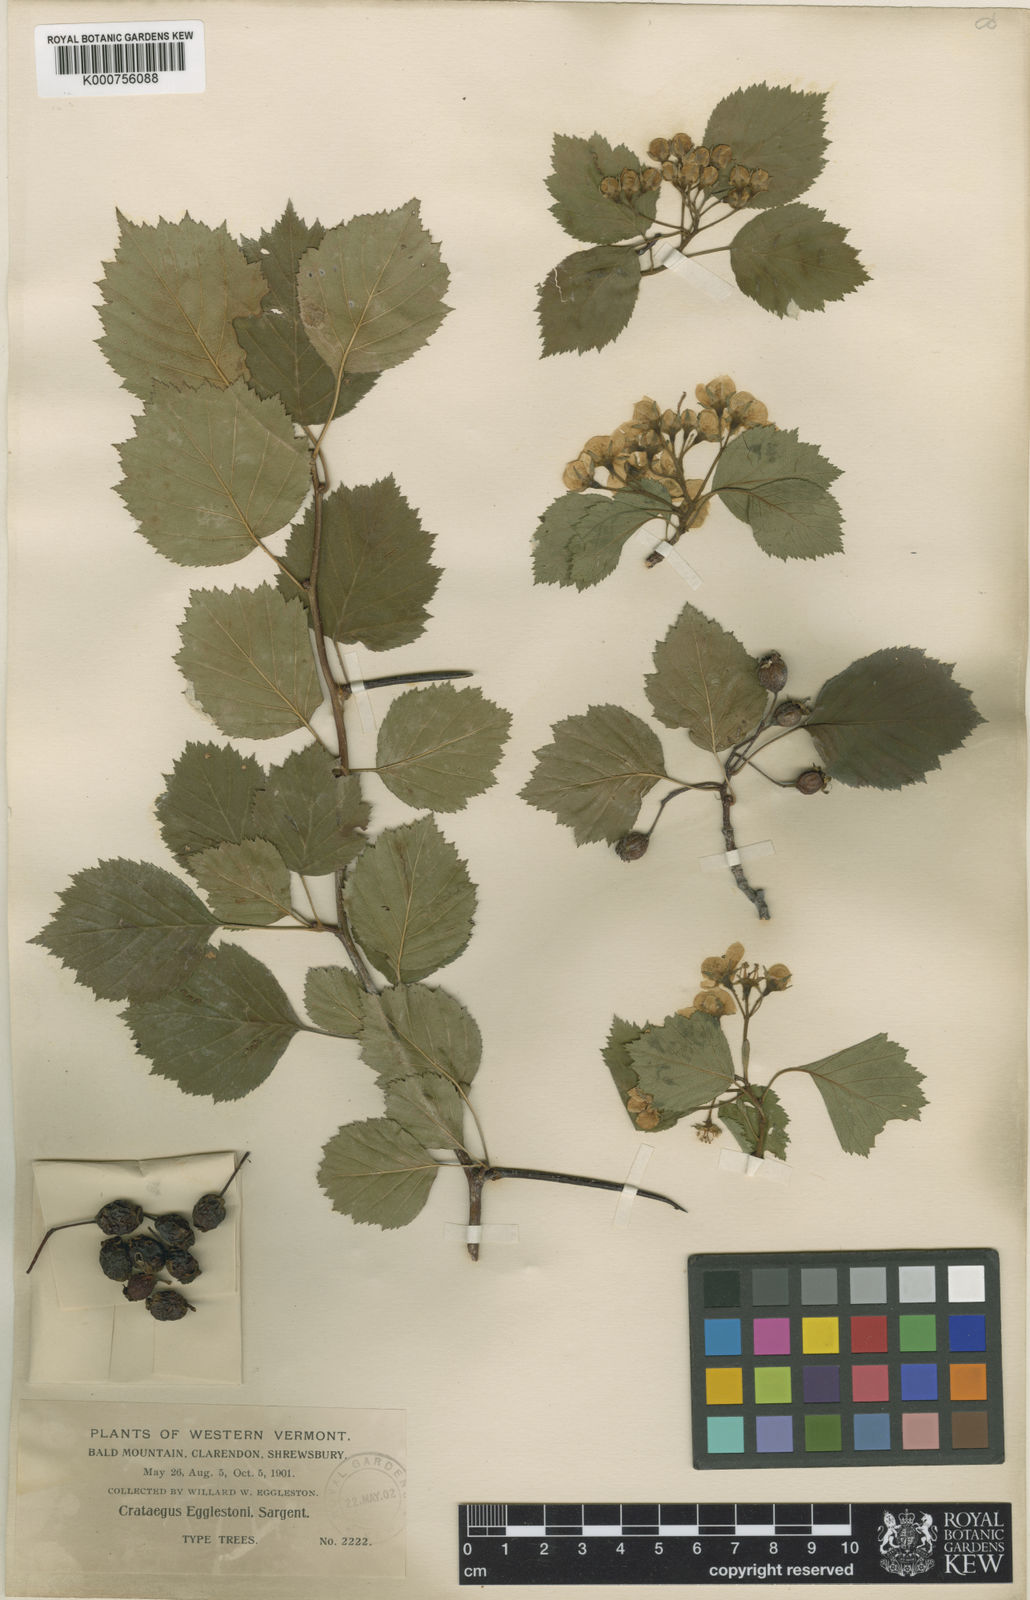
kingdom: Plantae
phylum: Tracheophyta
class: Magnoliopsida
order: Rosales
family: Rosaceae
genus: Crataegus
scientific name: Crataegus scabrida
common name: Rough hawthorn
